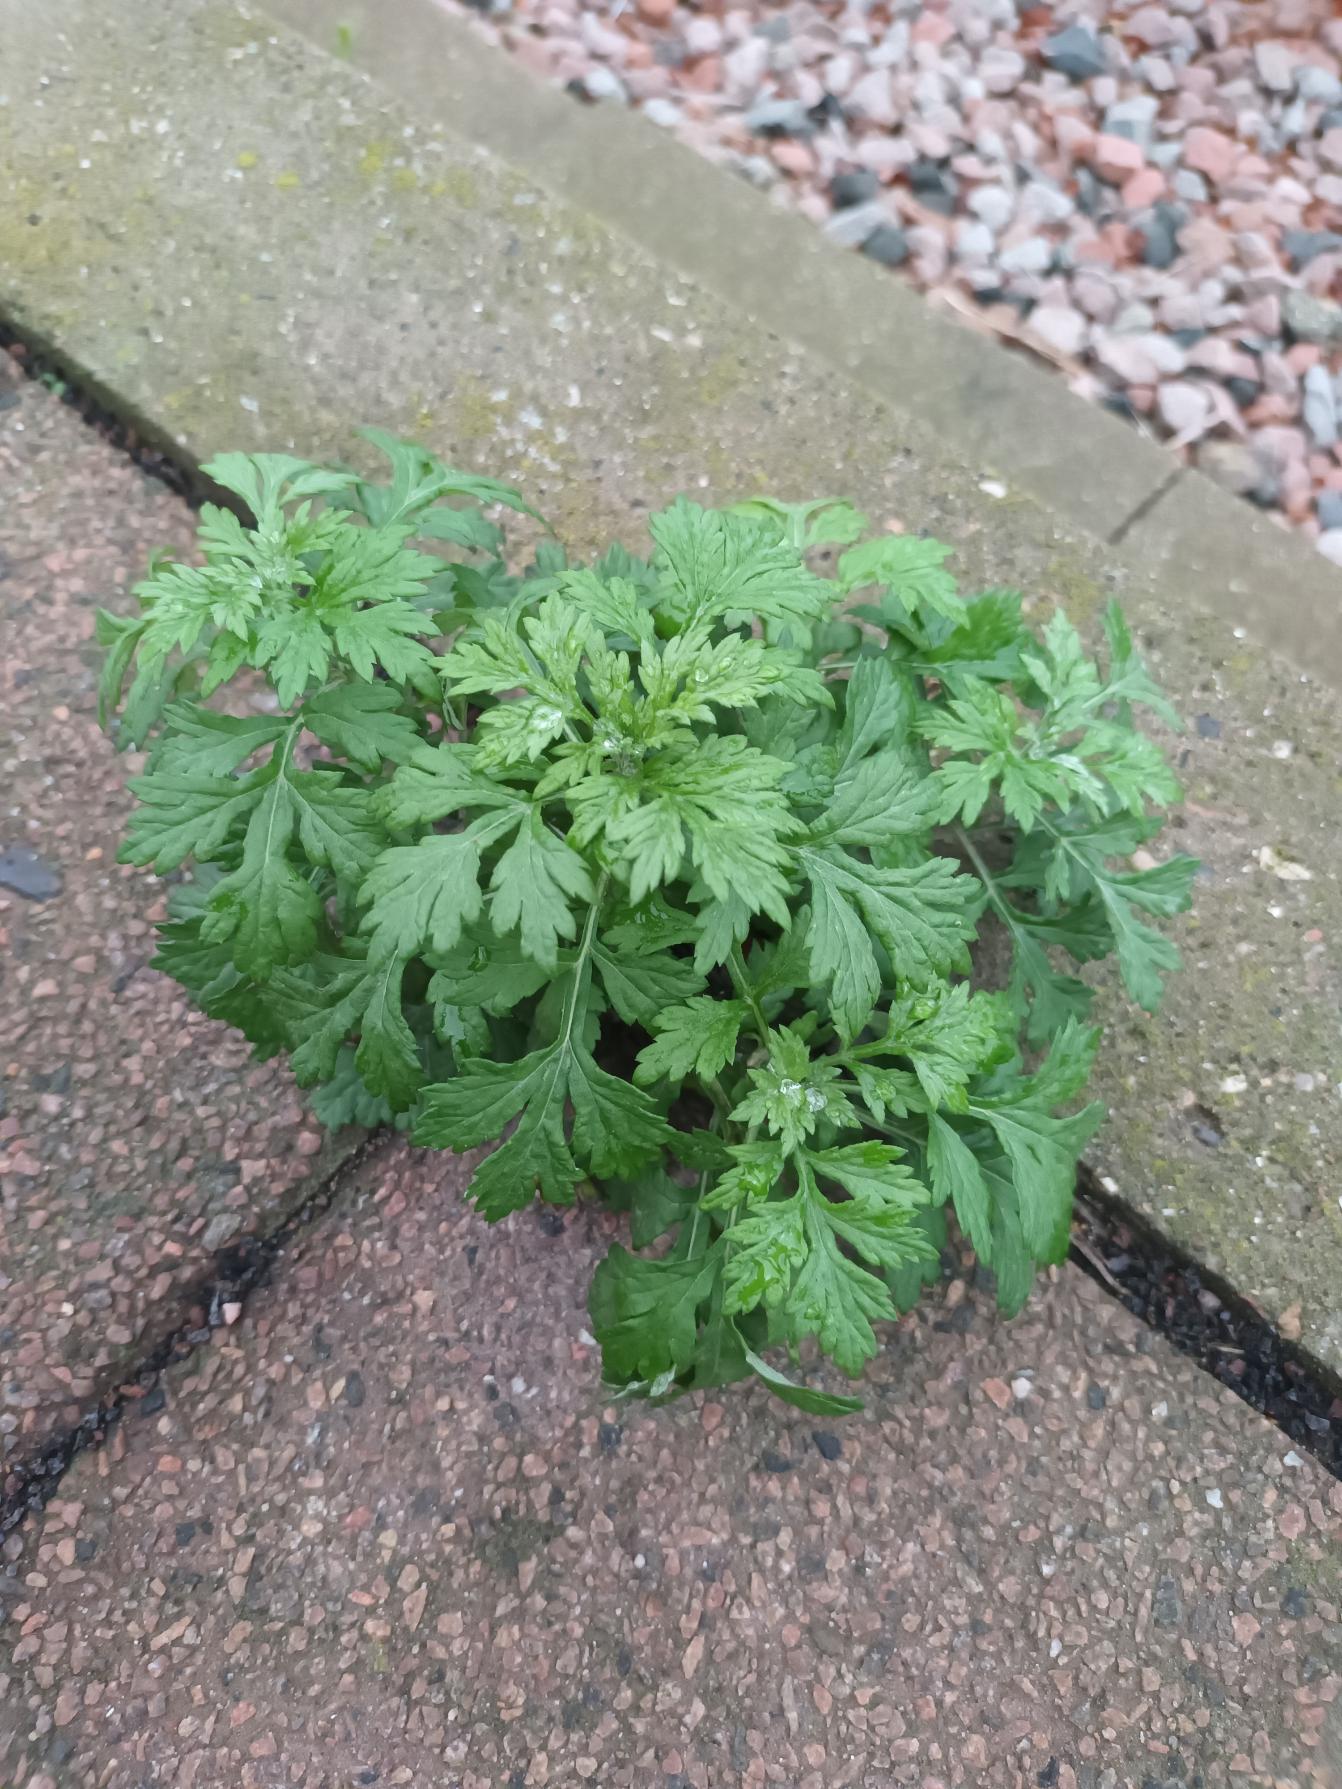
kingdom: Plantae
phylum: Tracheophyta
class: Magnoliopsida
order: Asterales
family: Asteraceae
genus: Artemisia
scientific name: Artemisia vulgaris
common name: Grå-bynke
